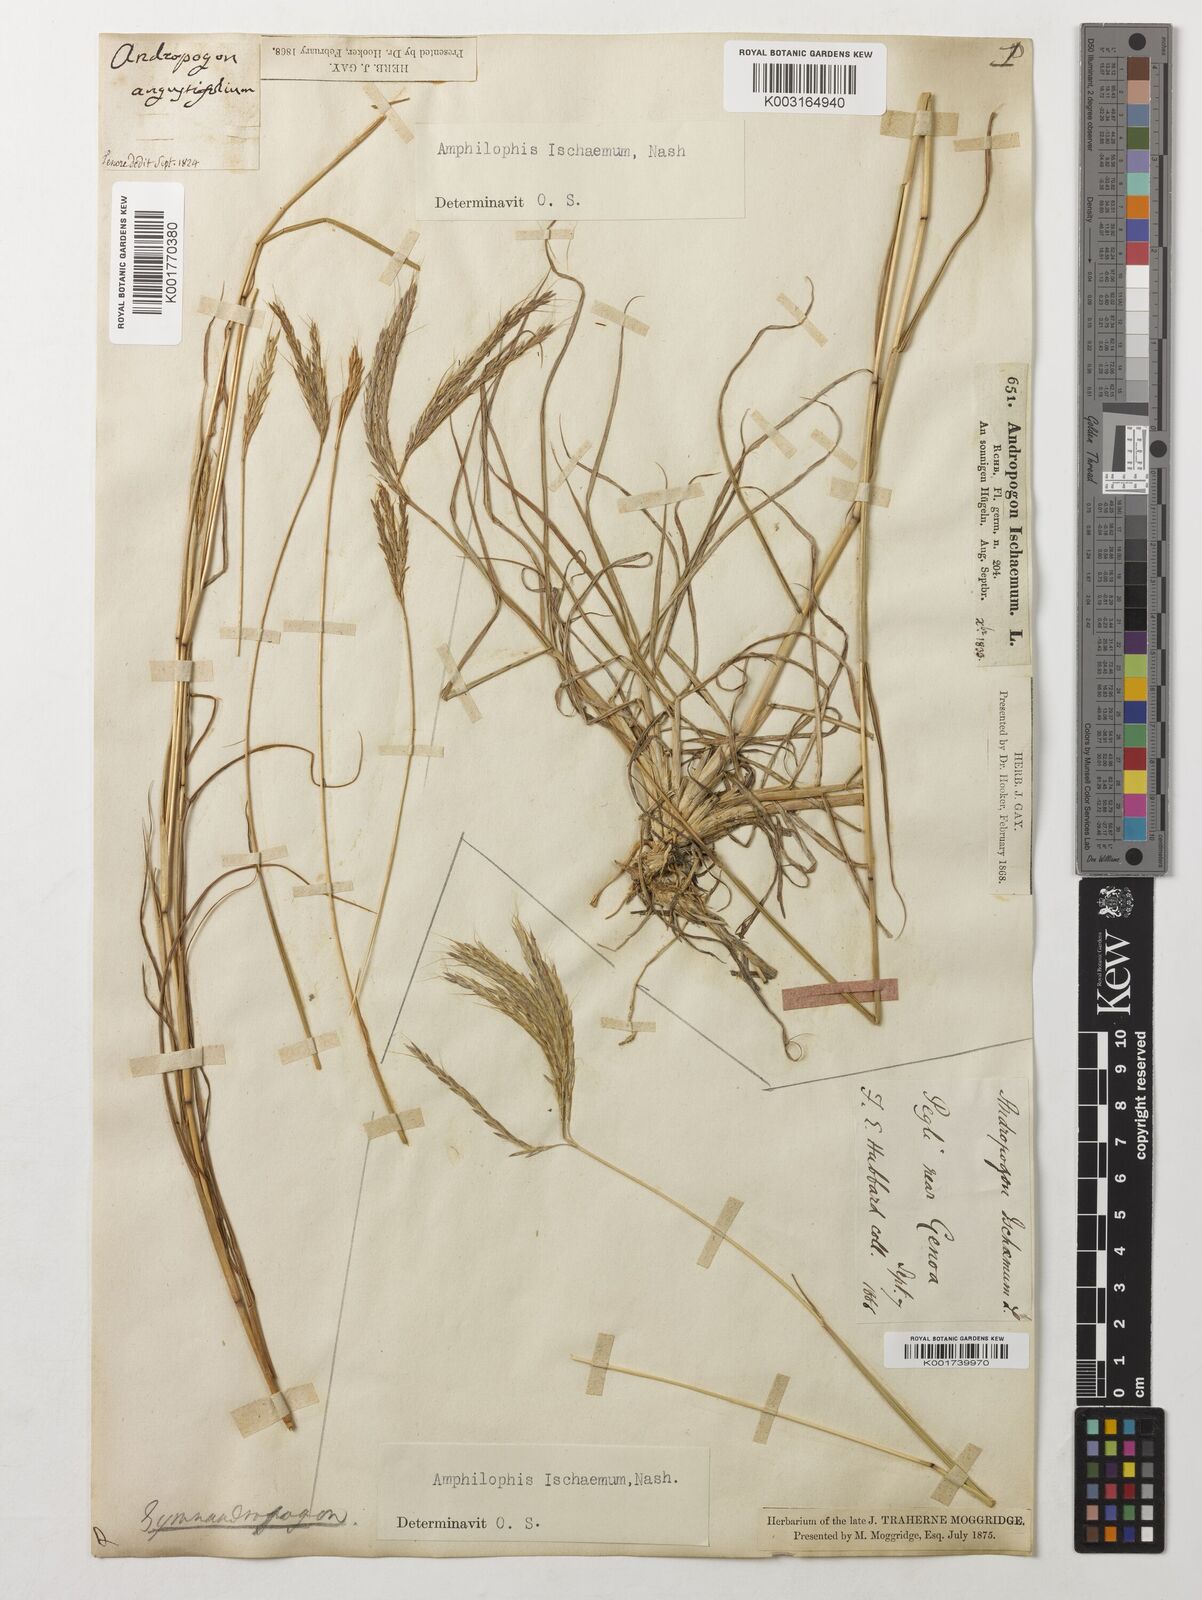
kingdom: Plantae
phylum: Tracheophyta
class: Liliopsida
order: Poales
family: Poaceae
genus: Bothriochloa
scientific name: Bothriochloa ischaemum
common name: Yellow bluestem
